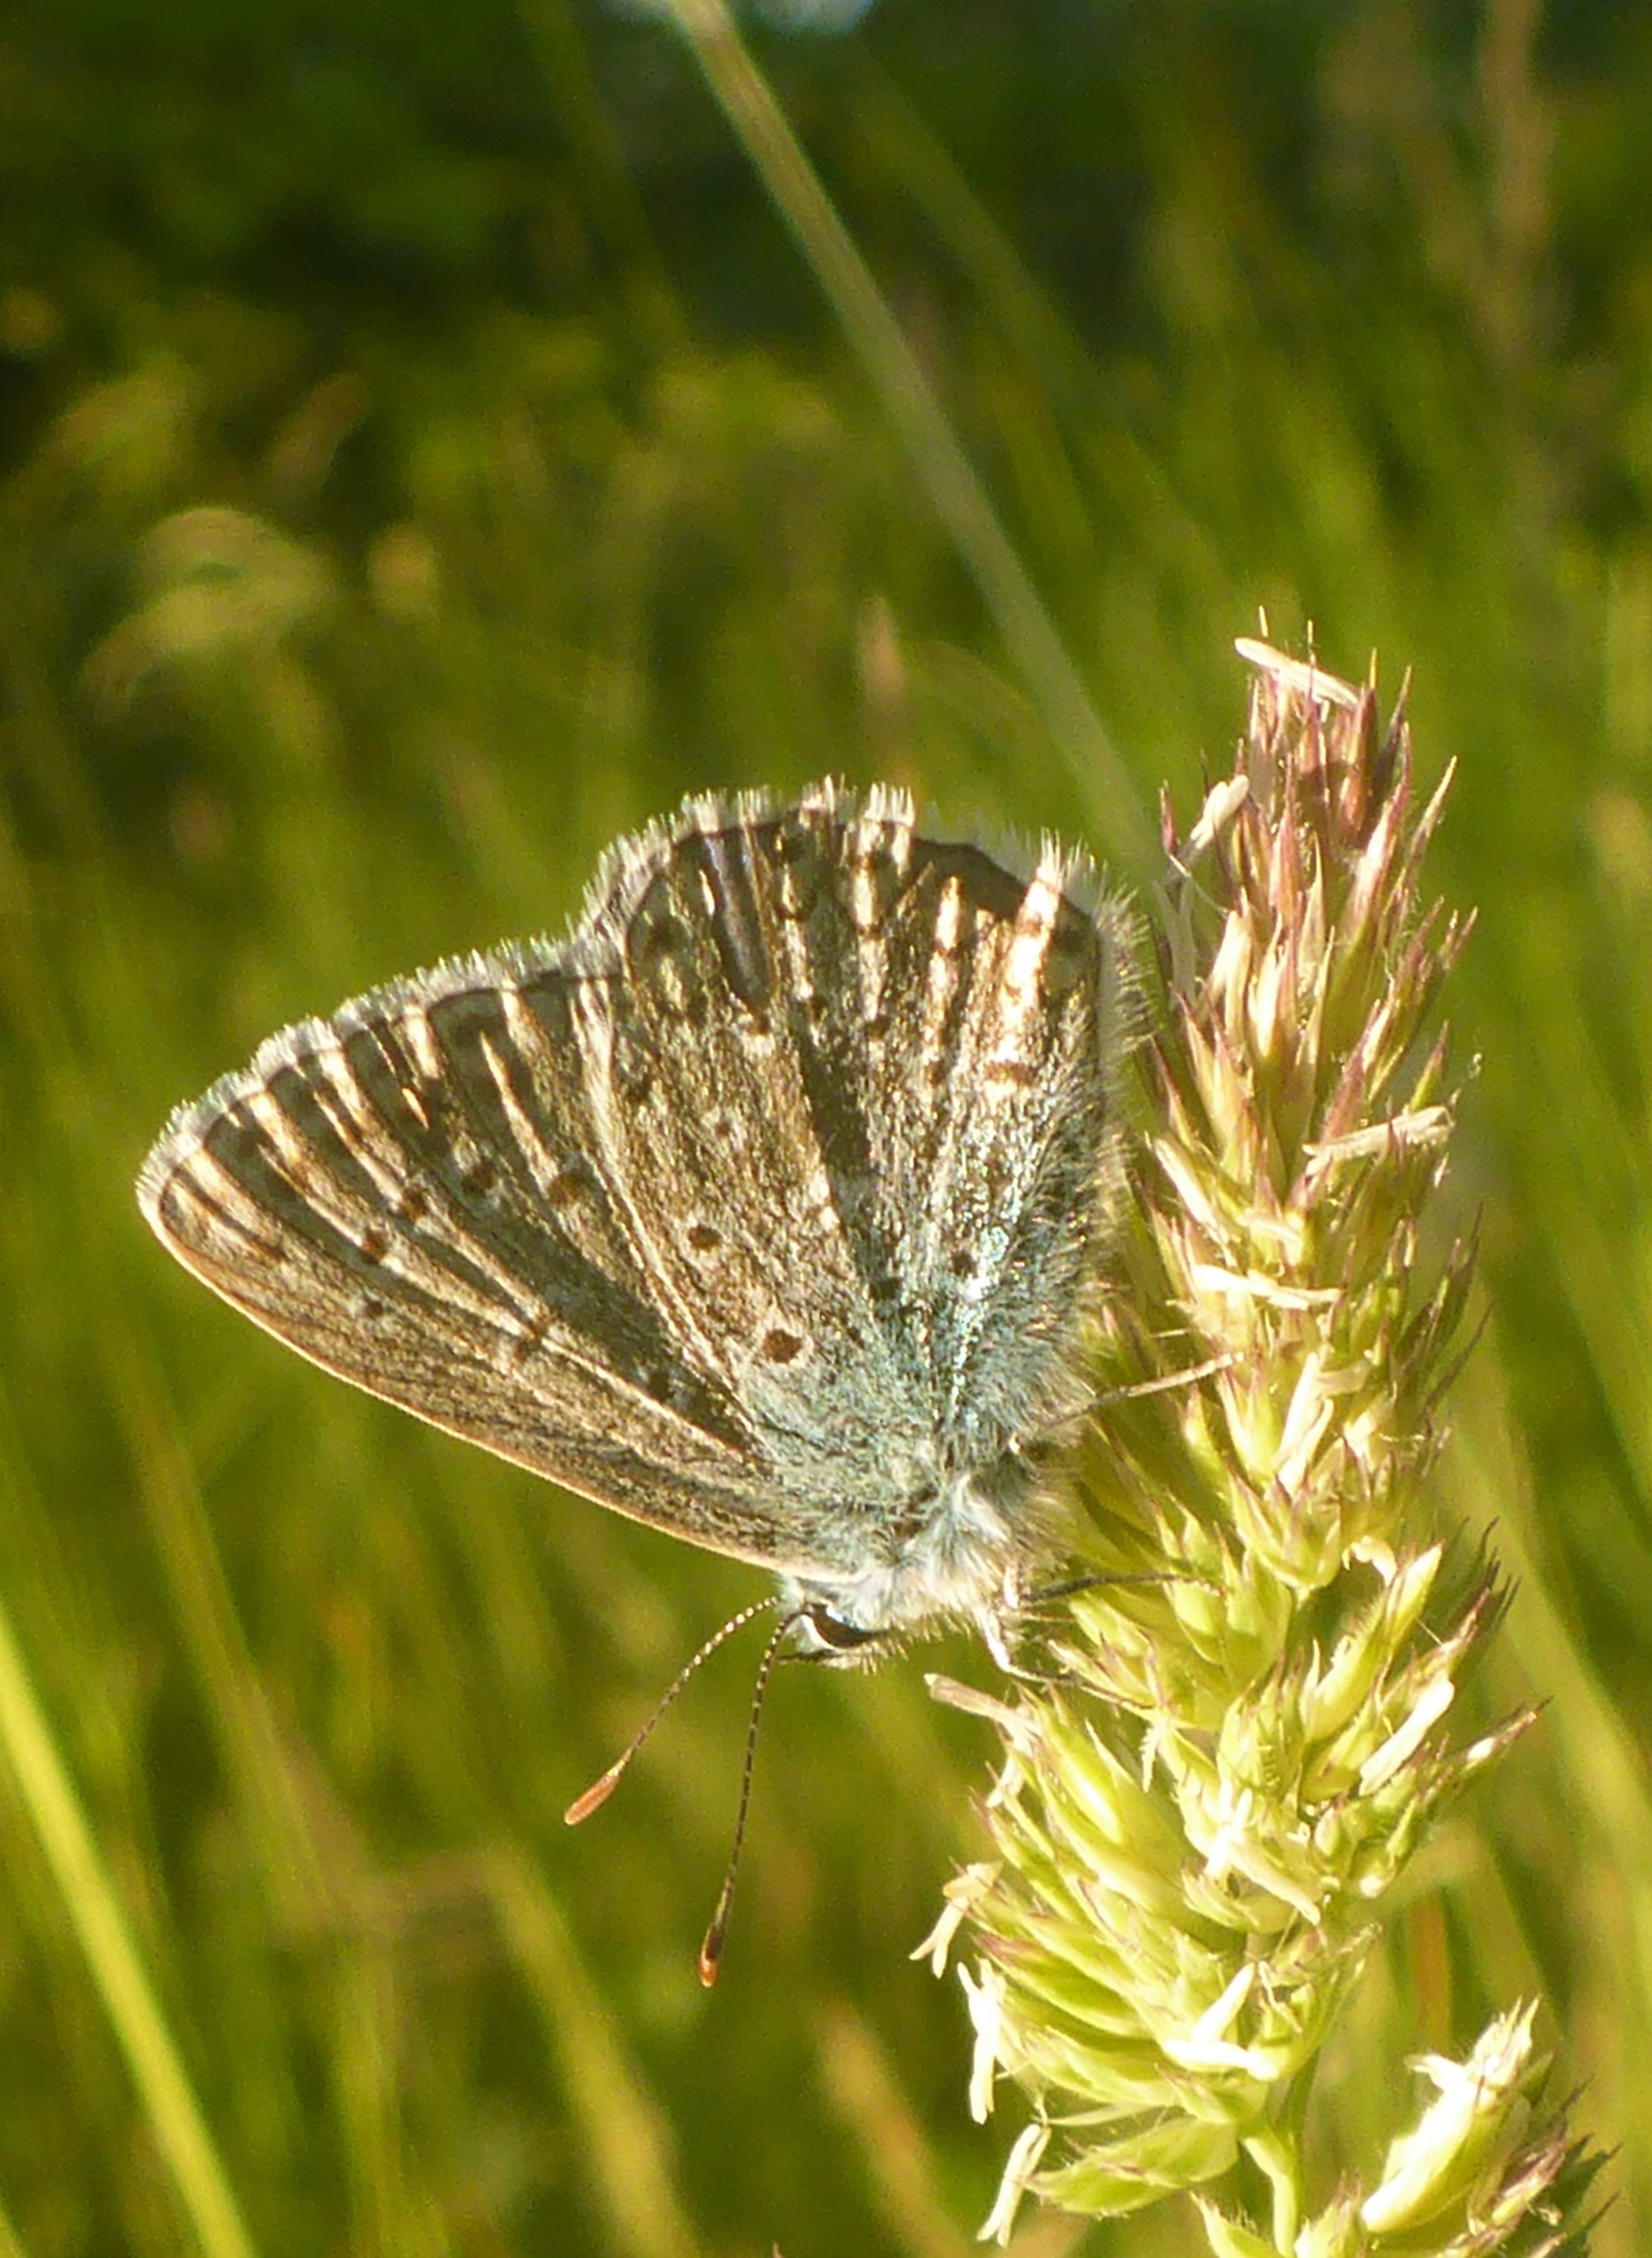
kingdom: Animalia
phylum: Arthropoda
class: Insecta
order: Lepidoptera
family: Lycaenidae
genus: Polyommatus
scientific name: Polyommatus icarus
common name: Almindelig blåfugl
